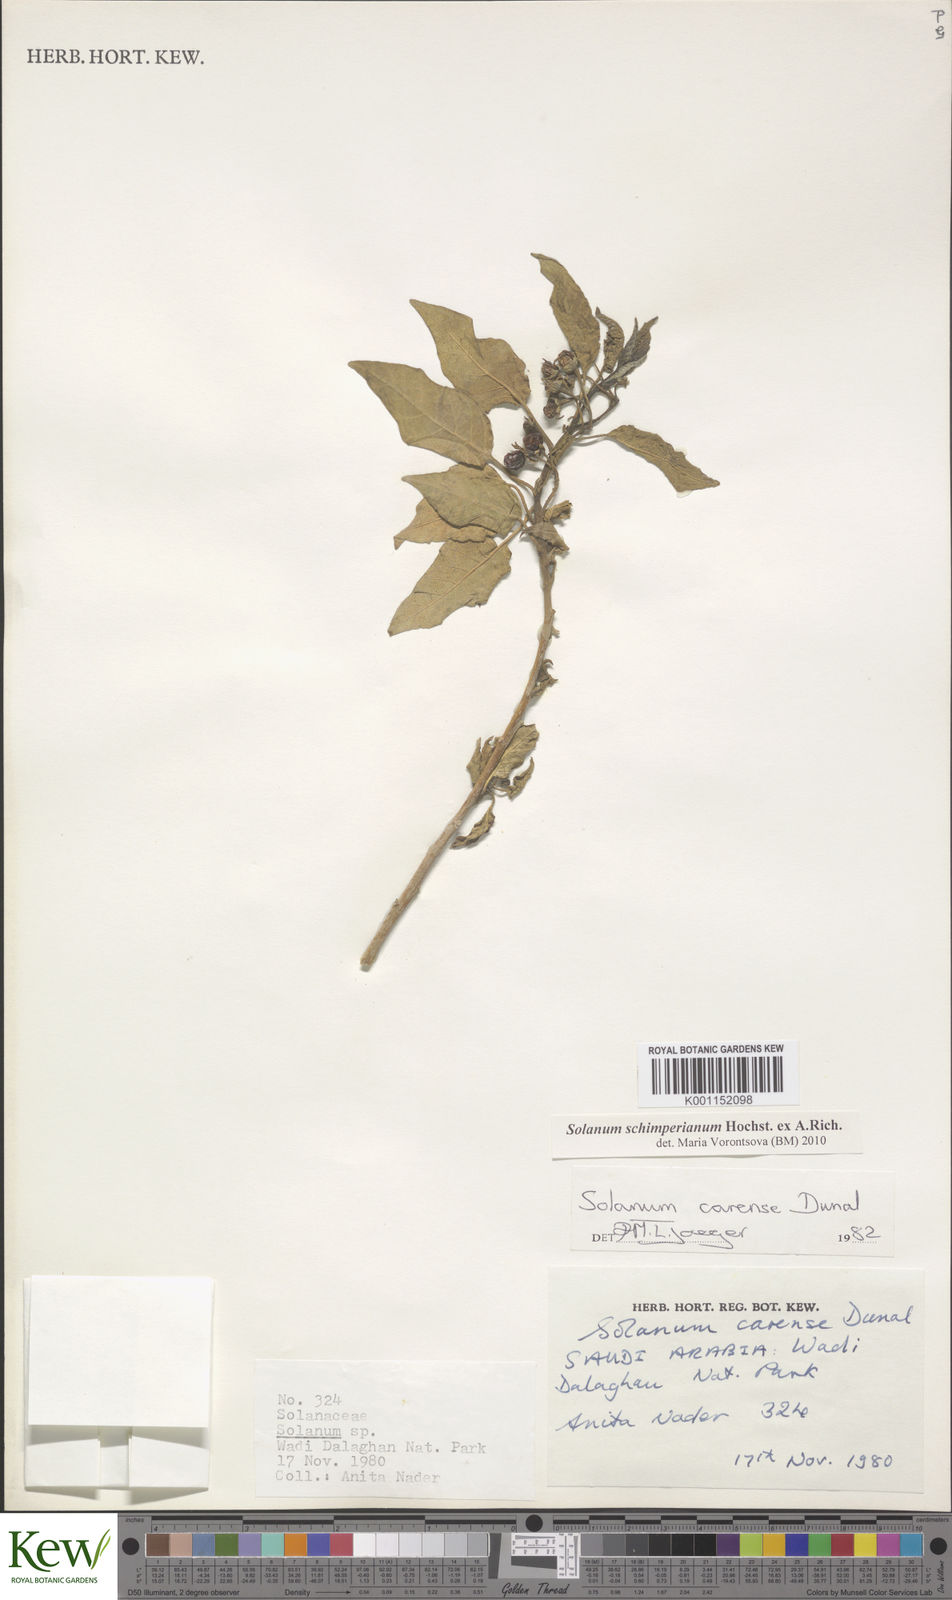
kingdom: Plantae
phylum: Tracheophyta
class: Magnoliopsida
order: Solanales
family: Solanaceae
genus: Solanum
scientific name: Solanum schimperianum
